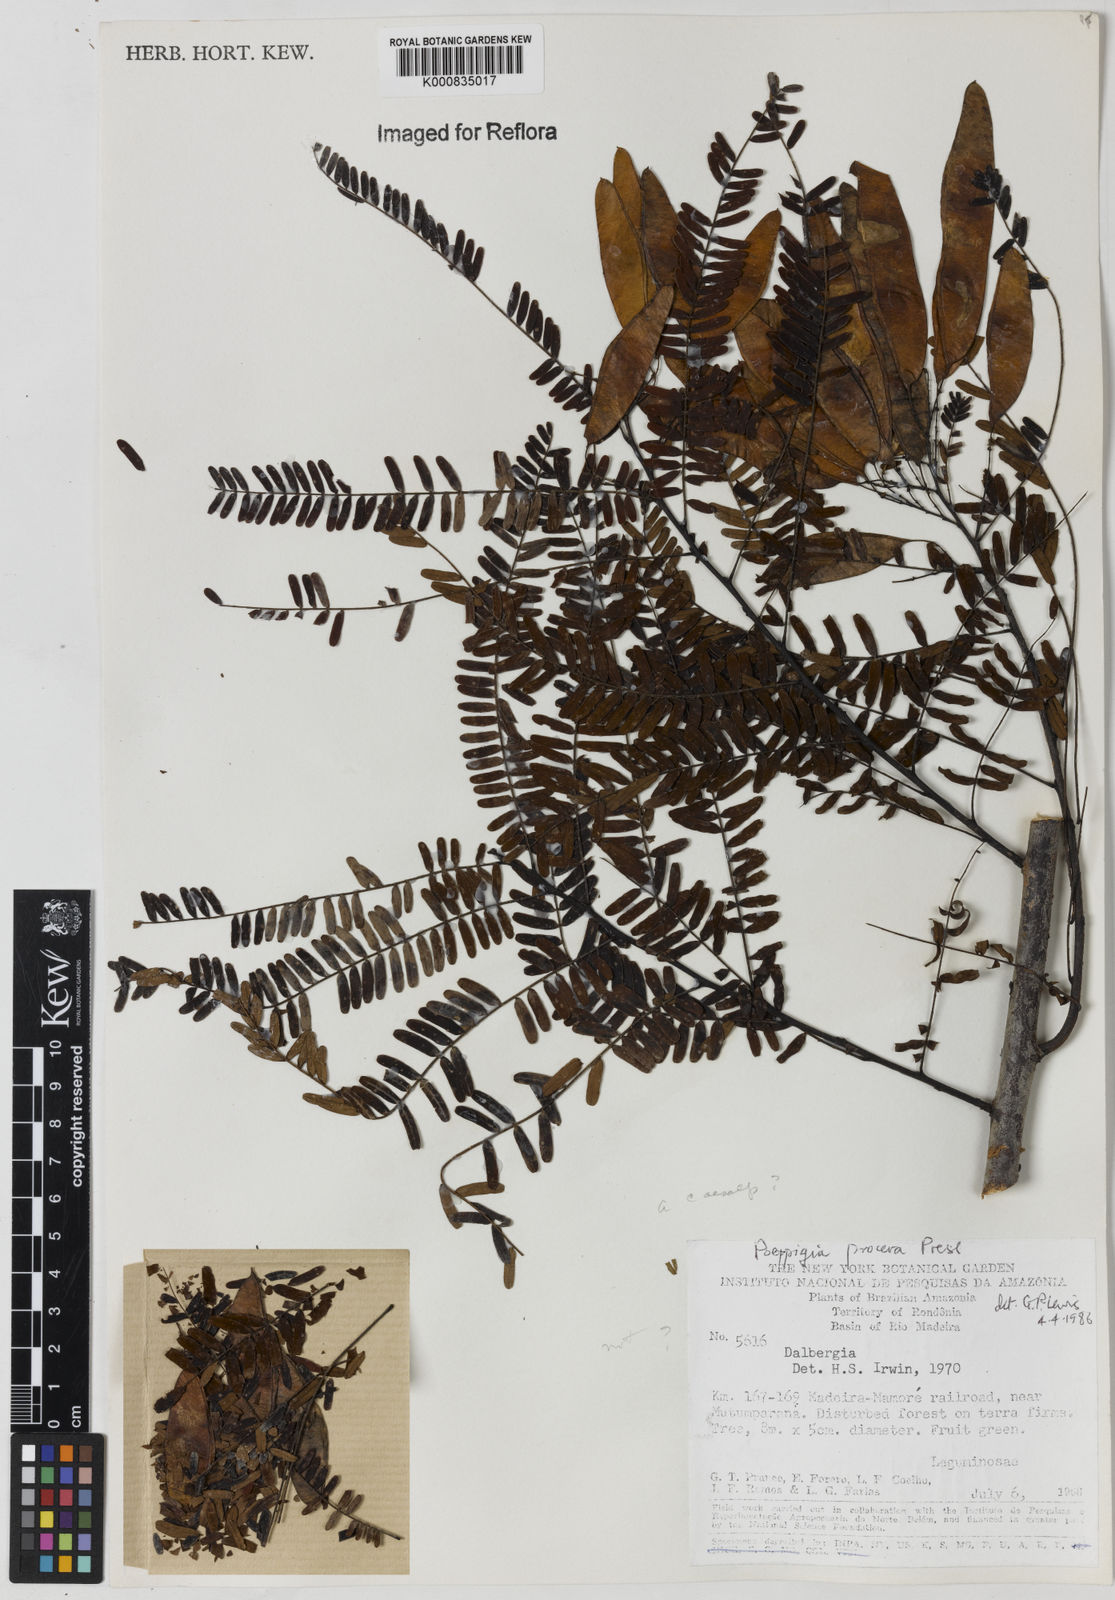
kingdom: Plantae
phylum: Tracheophyta
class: Magnoliopsida
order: Fabales
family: Fabaceae
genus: Dalbergia
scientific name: Dalbergia
